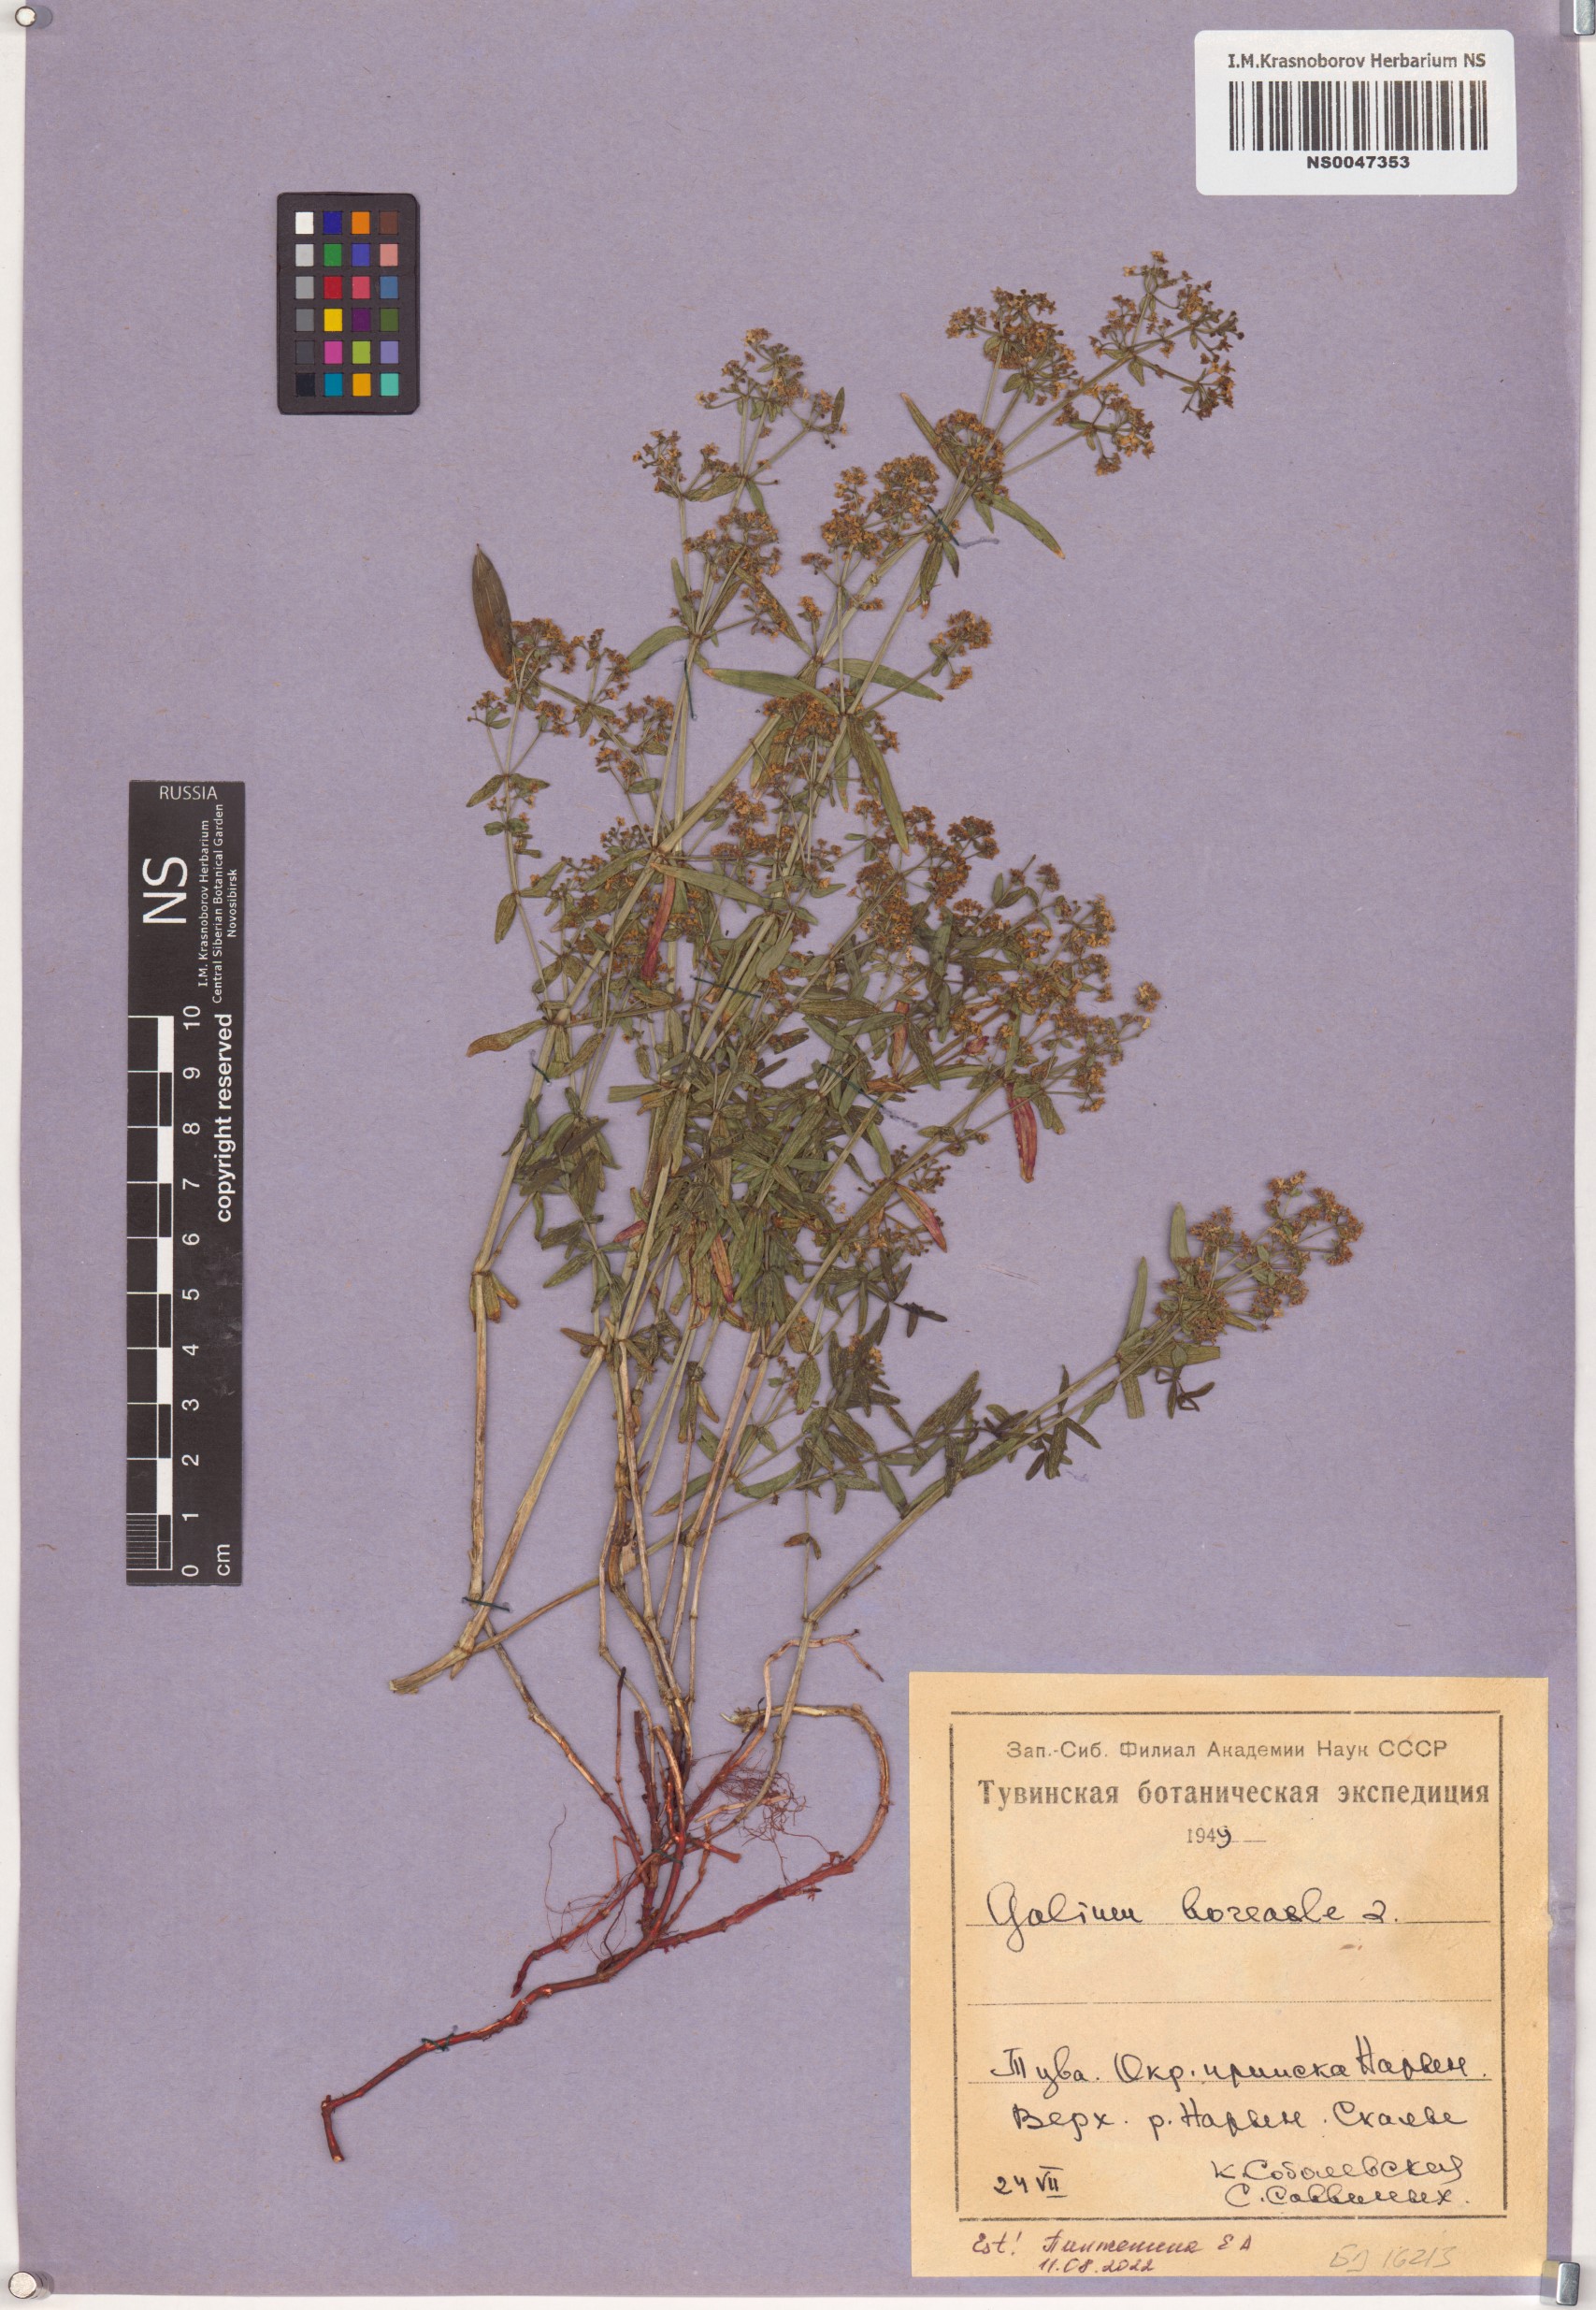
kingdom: Plantae
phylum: Tracheophyta
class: Magnoliopsida
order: Gentianales
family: Rubiaceae
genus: Galium
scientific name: Galium boreale
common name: Northern bedstraw
